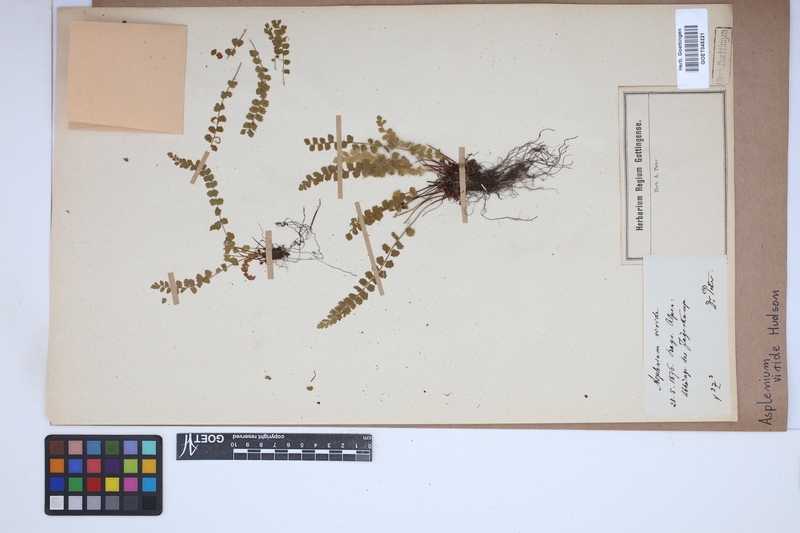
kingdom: Plantae
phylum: Tracheophyta
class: Polypodiopsida
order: Polypodiales
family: Aspleniaceae
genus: Asplenium
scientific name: Asplenium viride
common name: Green spleenwort
